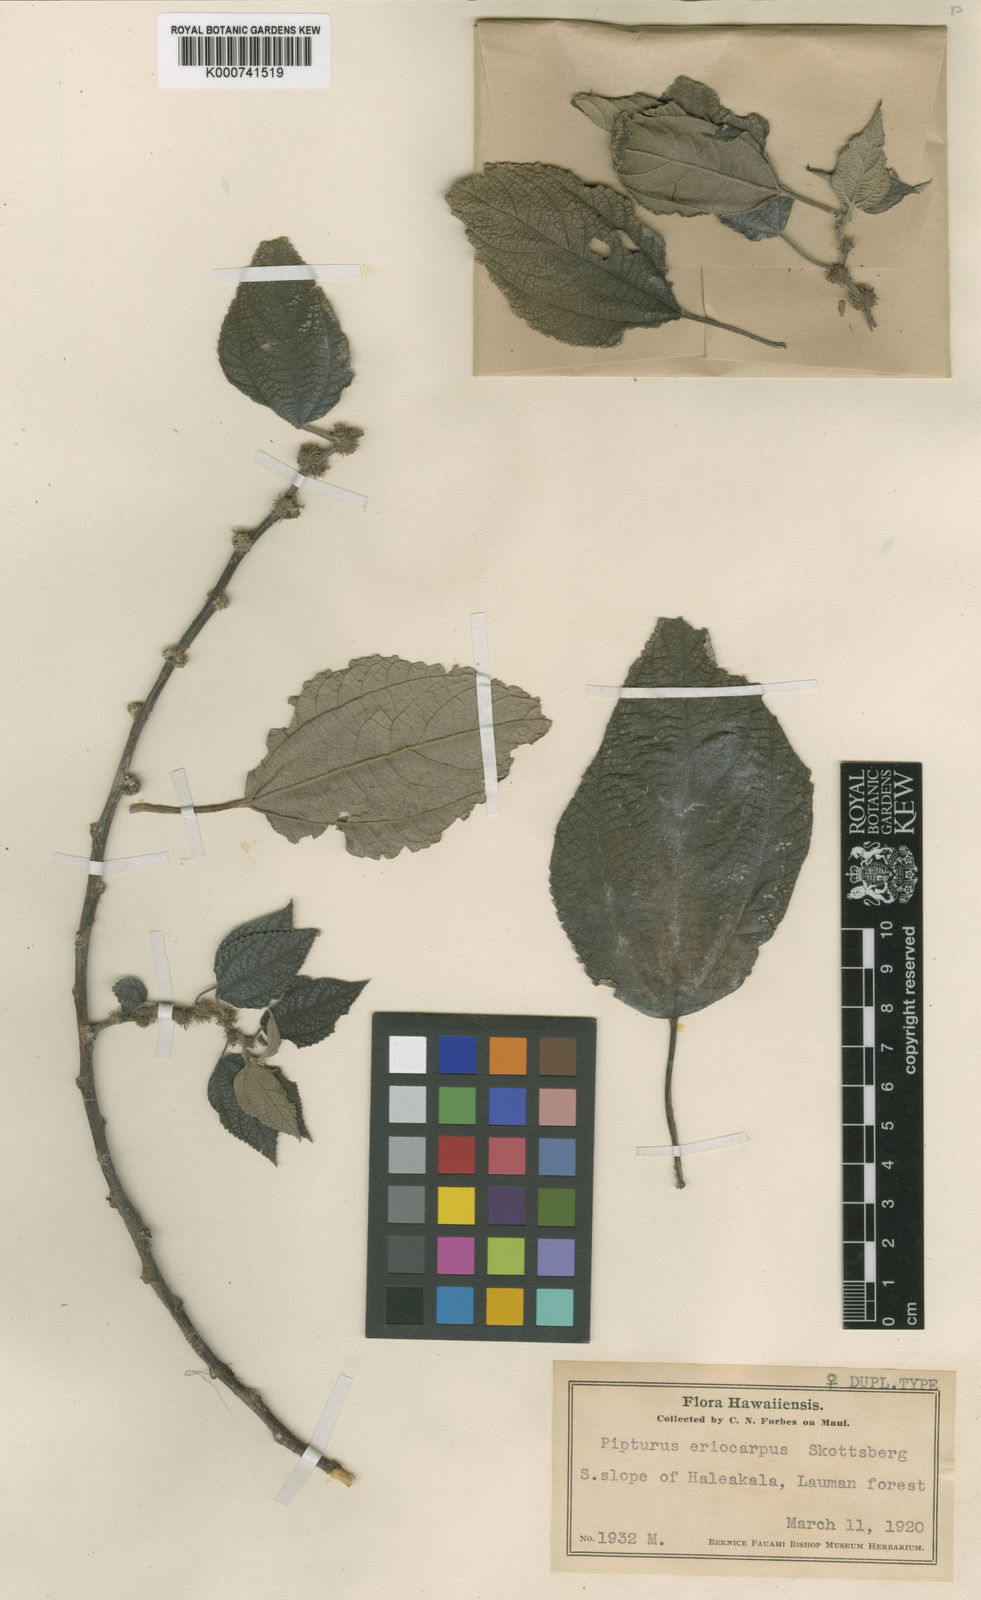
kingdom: Plantae
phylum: Tracheophyta
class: Magnoliopsida
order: Rosales
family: Urticaceae
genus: Pipturus
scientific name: Pipturus albidus
